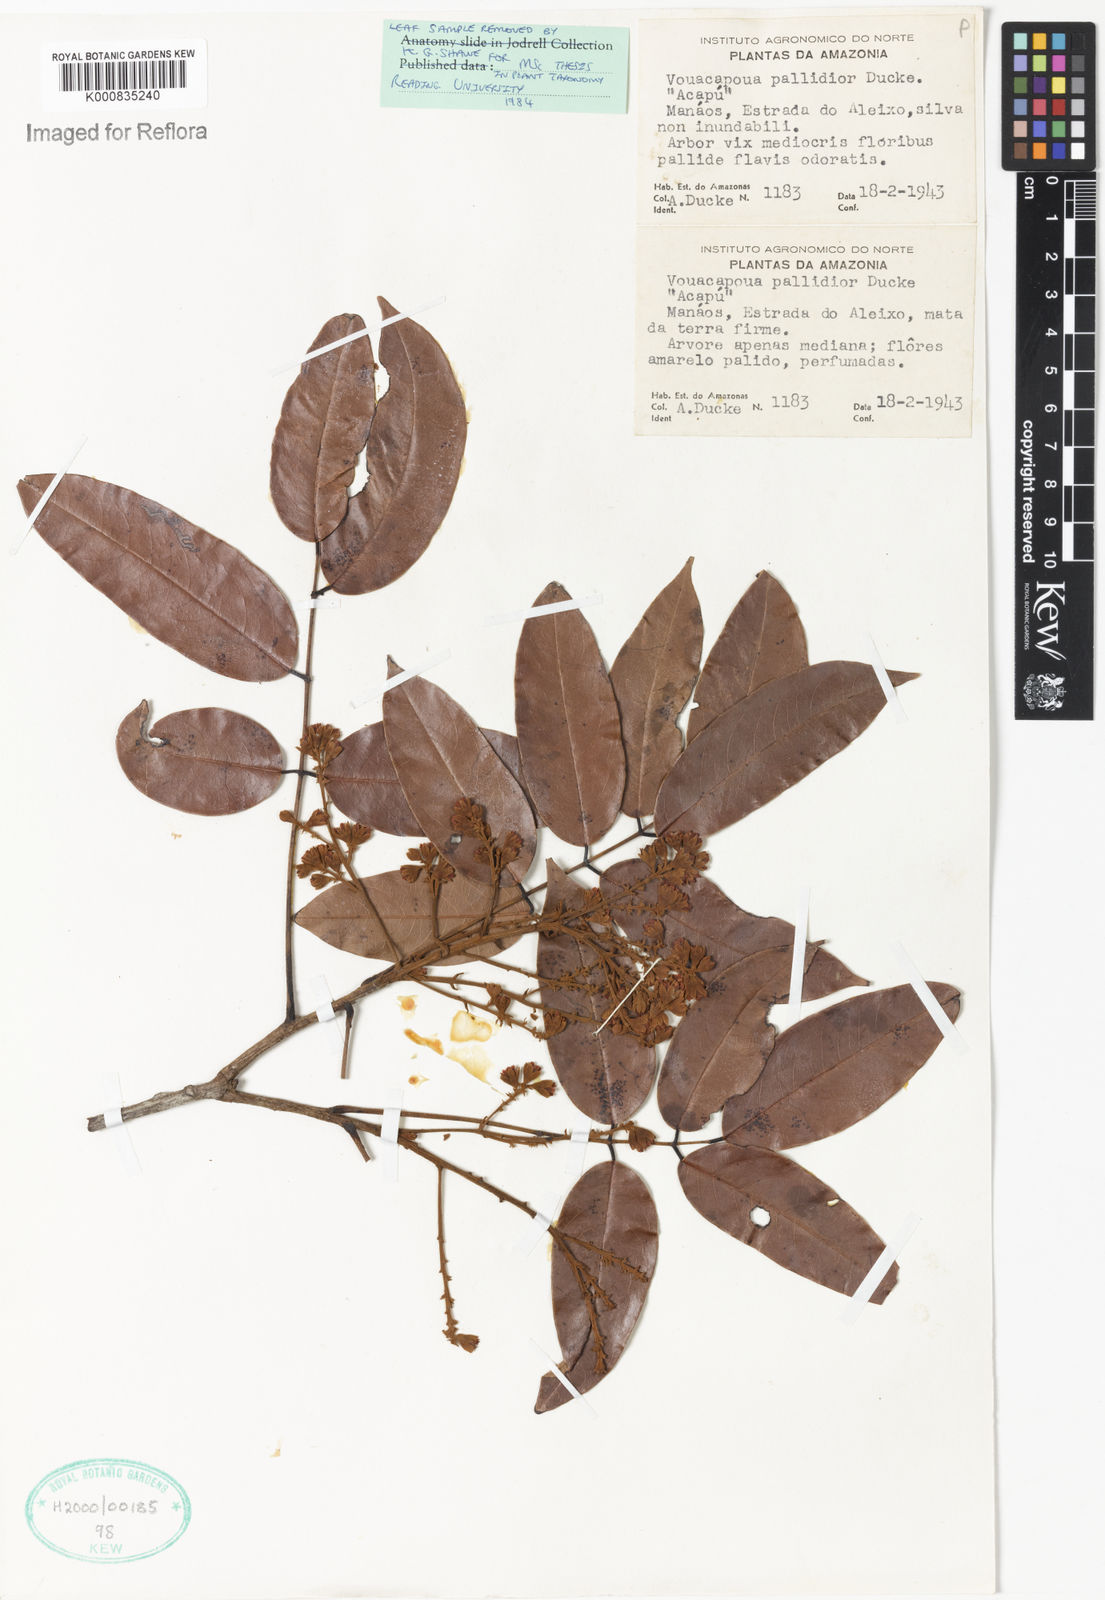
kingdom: Plantae
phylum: Tracheophyta
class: Magnoliopsida
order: Fabales
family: Fabaceae
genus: Vouacapoua
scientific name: Vouacapoua pallidior
